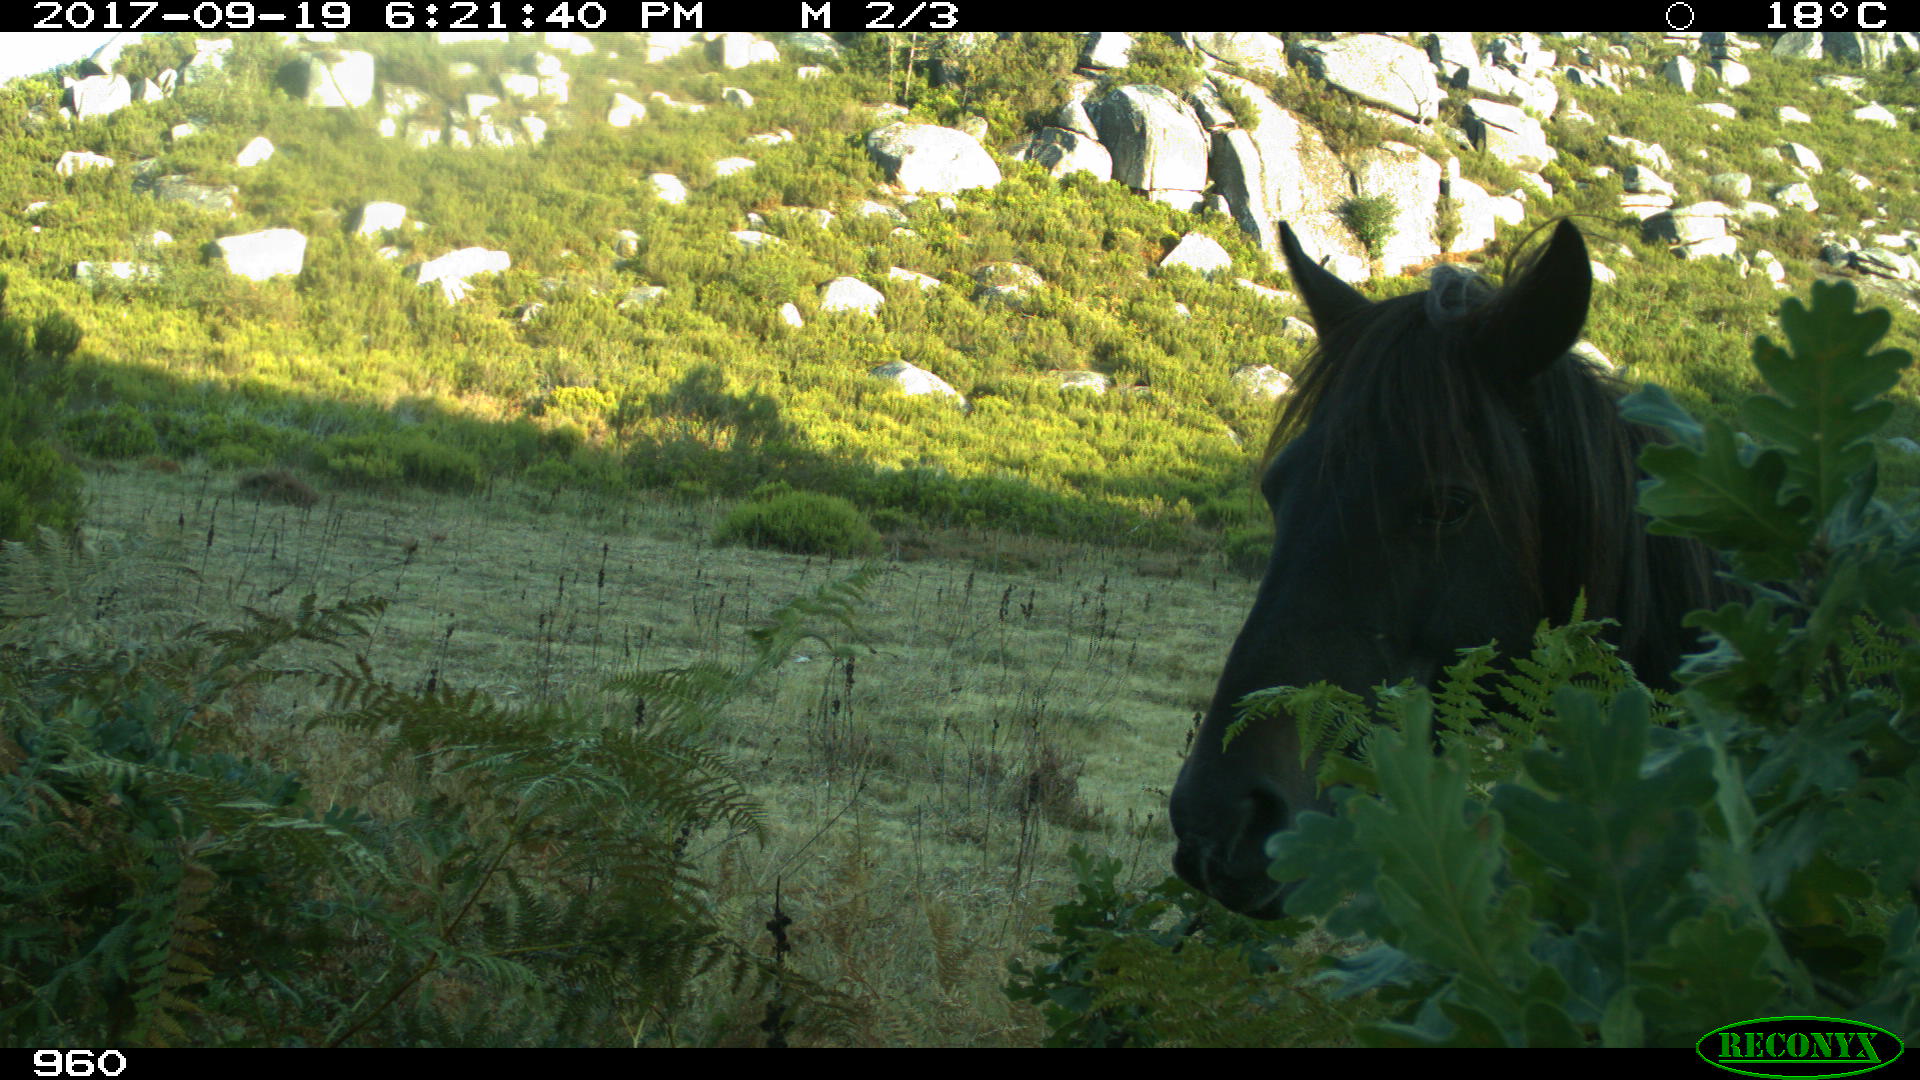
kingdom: Animalia
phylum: Chordata
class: Mammalia
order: Perissodactyla
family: Equidae
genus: Equus
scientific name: Equus caballus
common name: Horse
